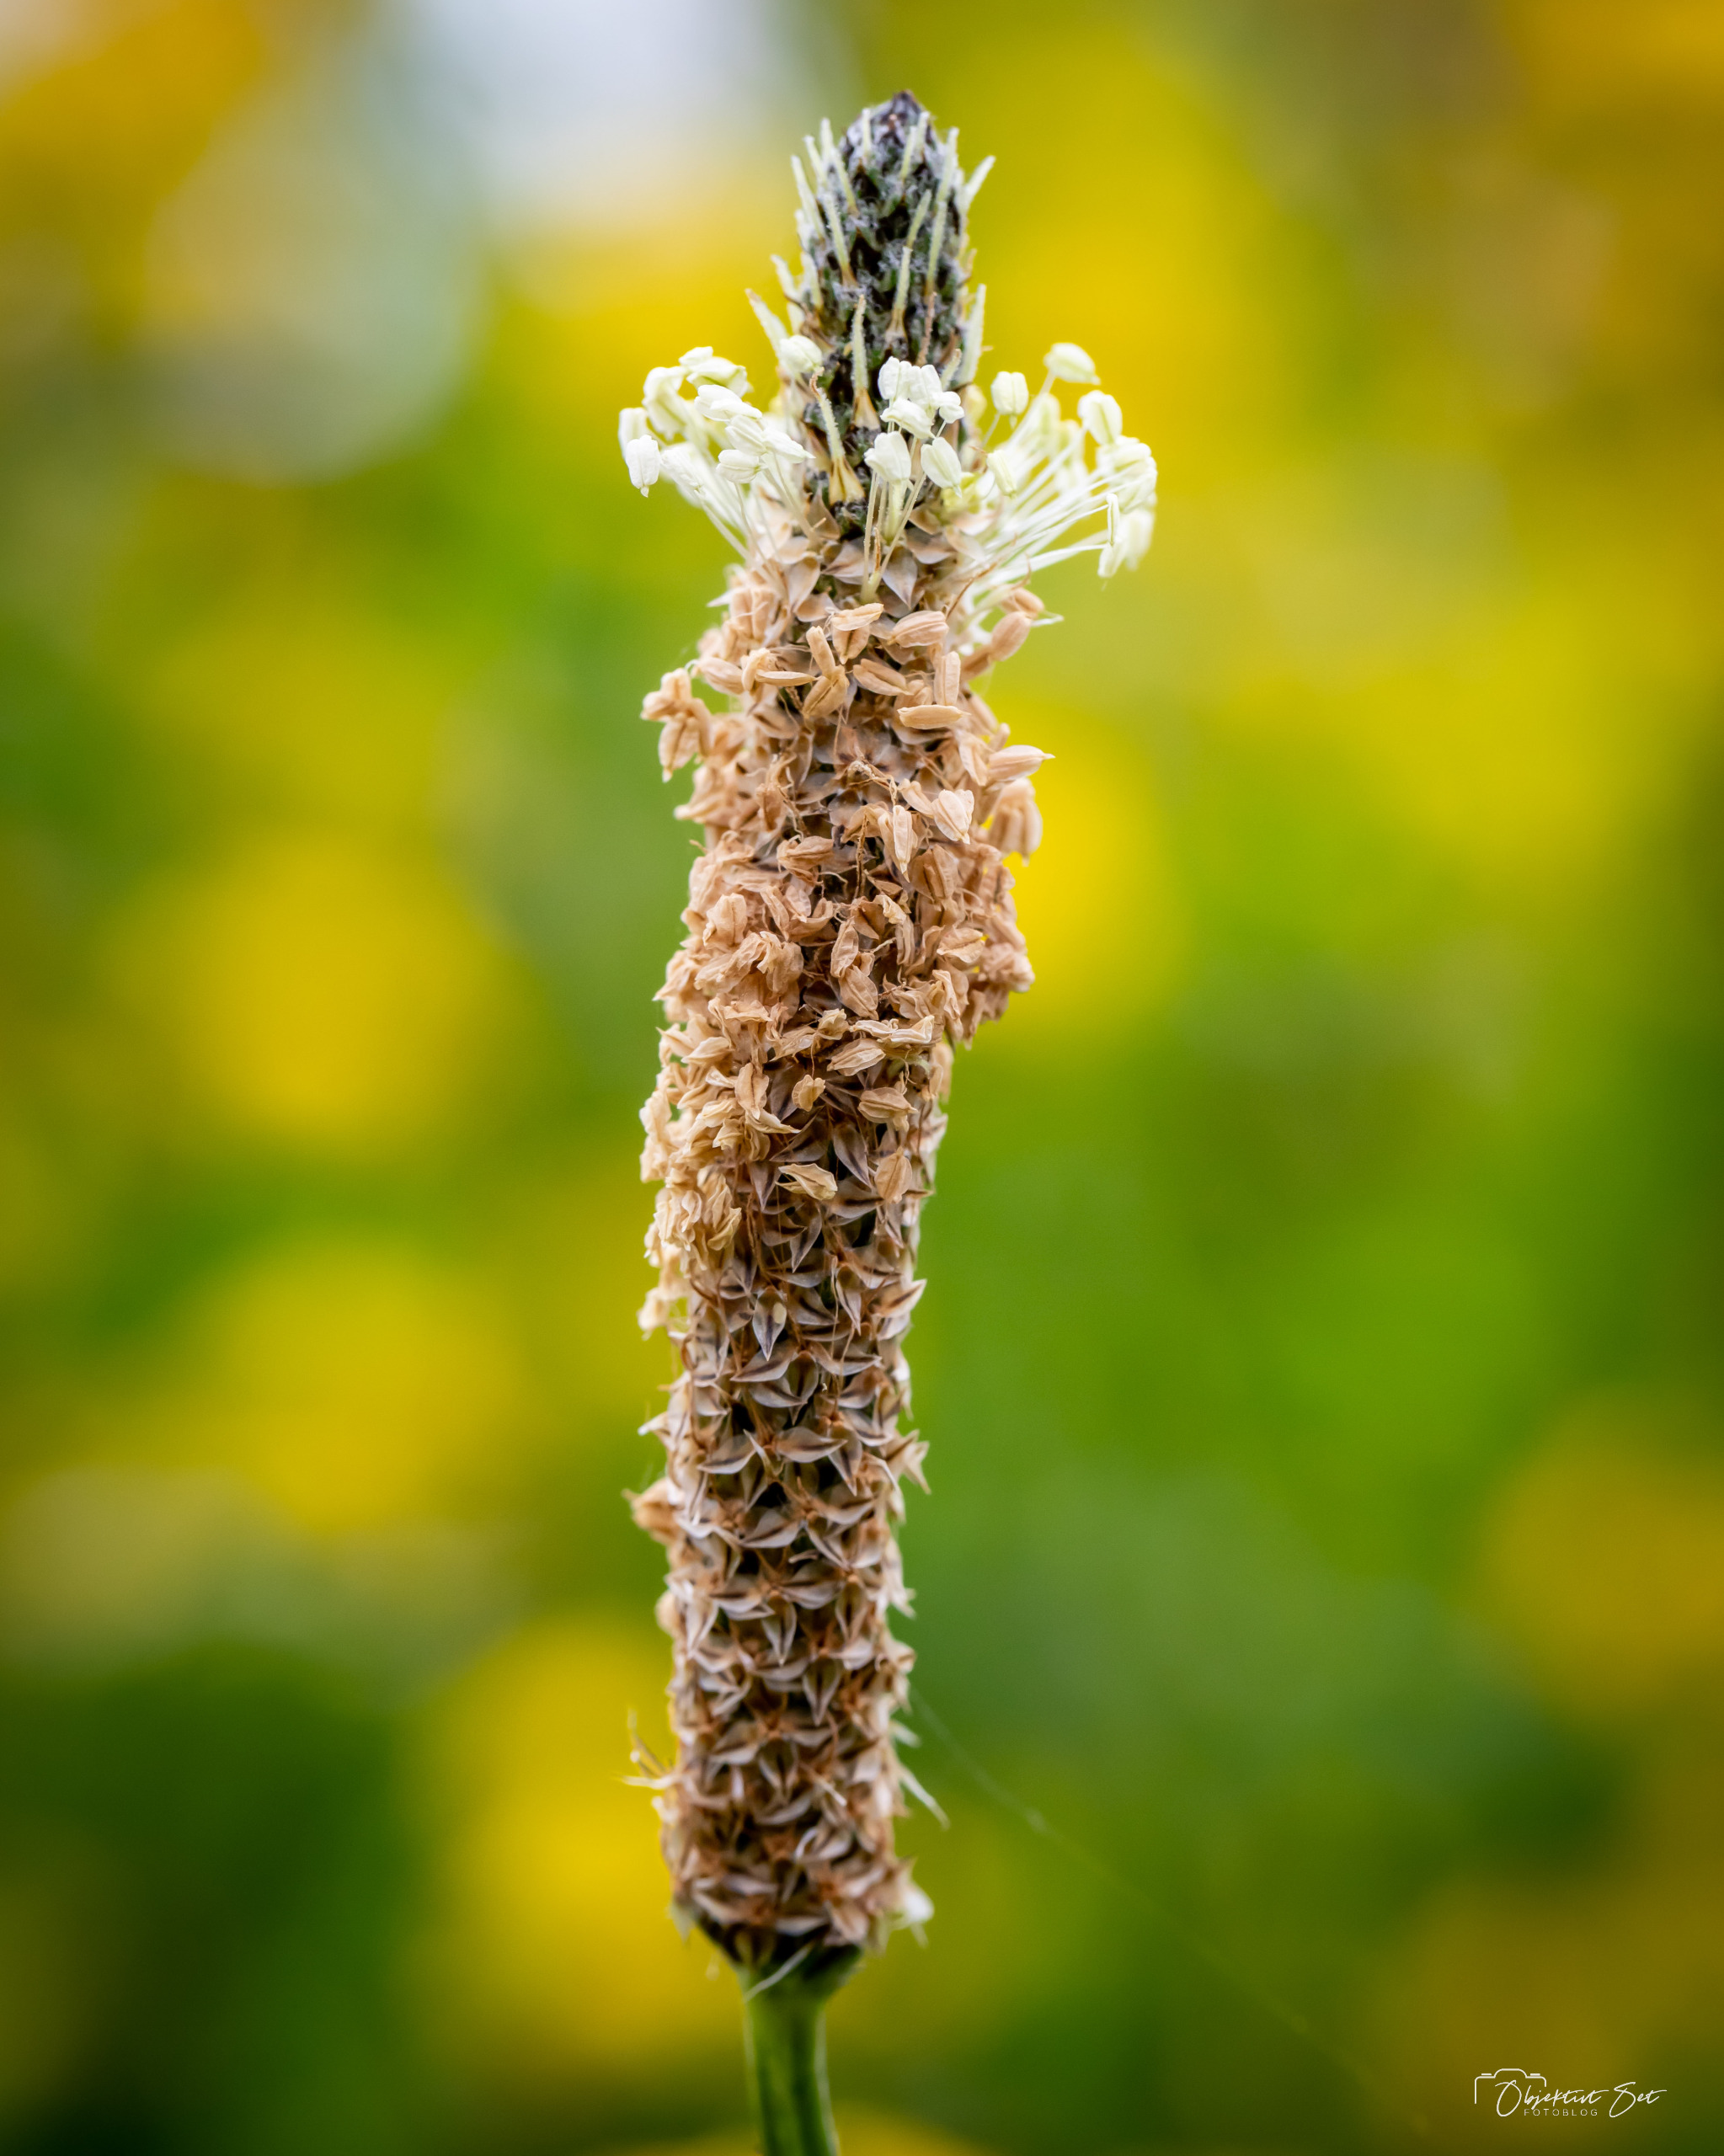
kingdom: Plantae
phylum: Tracheophyta
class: Magnoliopsida
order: Lamiales
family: Plantaginaceae
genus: Plantago
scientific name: Plantago lanceolata
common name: Lancet-vejbred
